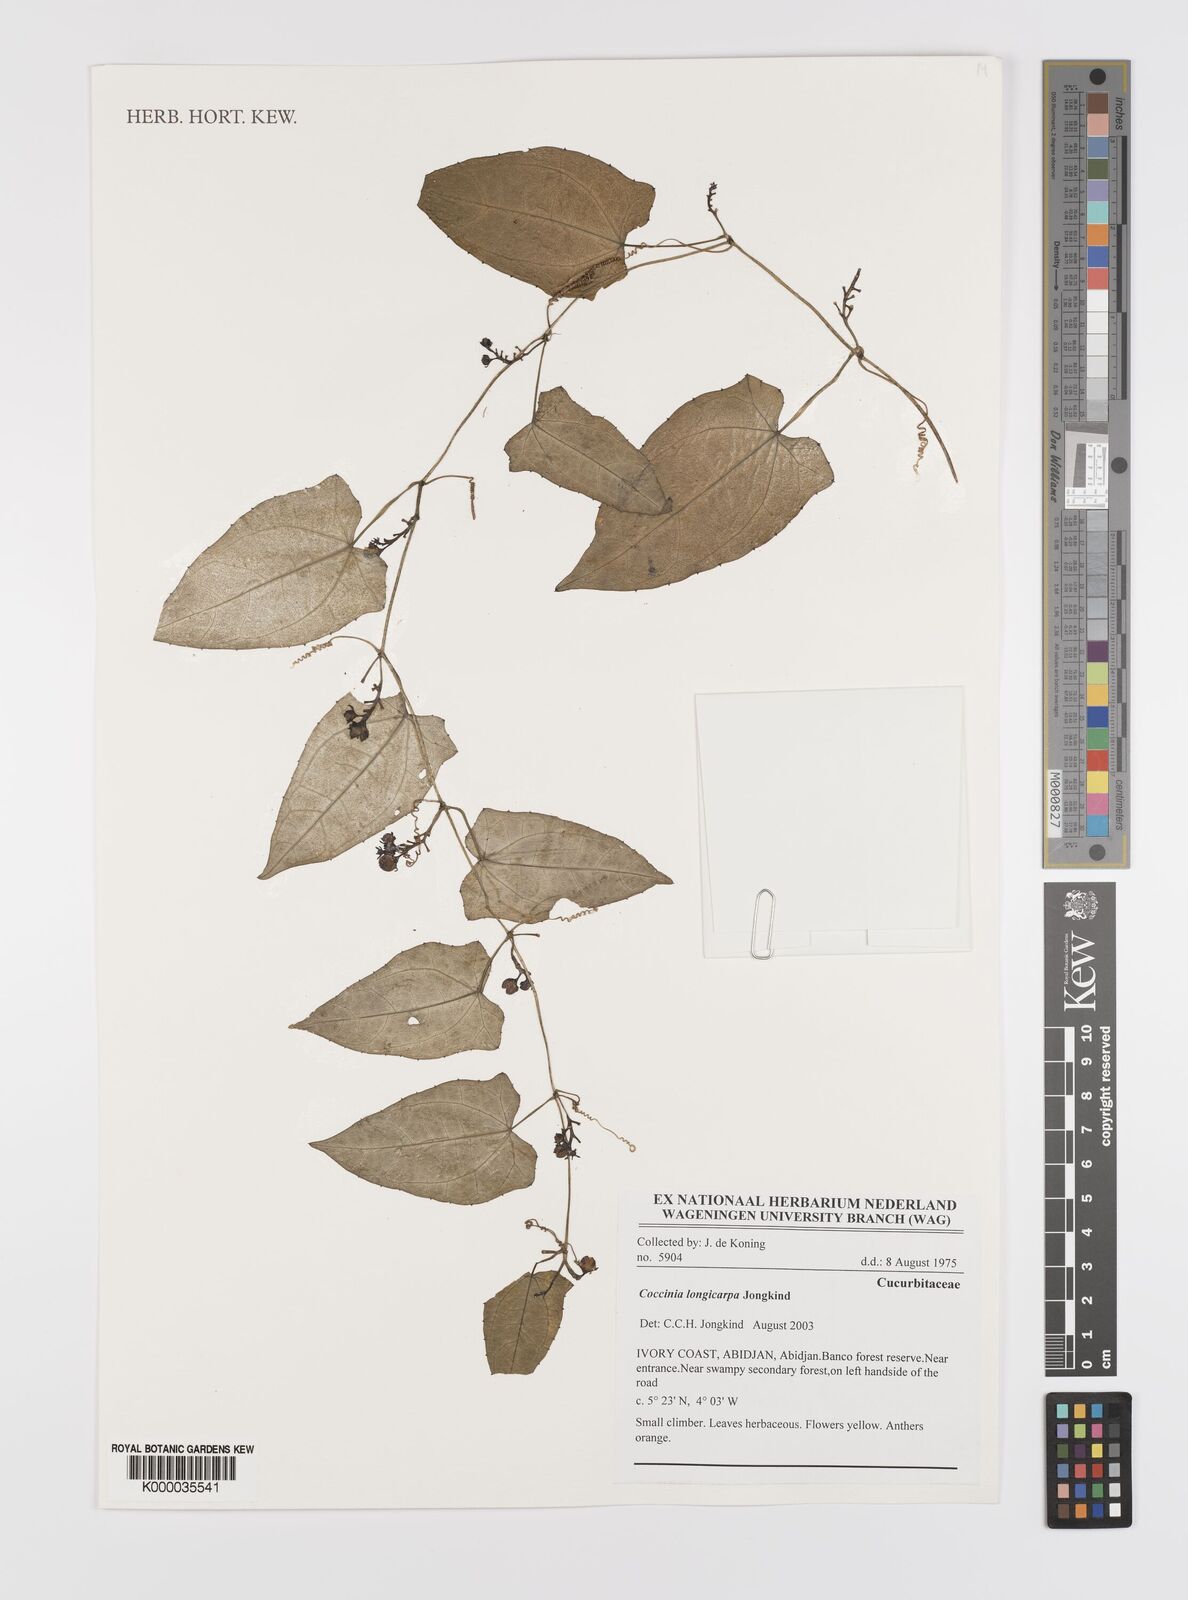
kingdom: Plantae
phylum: Tracheophyta
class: Magnoliopsida
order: Cucurbitales
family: Cucurbitaceae
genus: Coccinia
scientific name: Coccinia longicarpa
